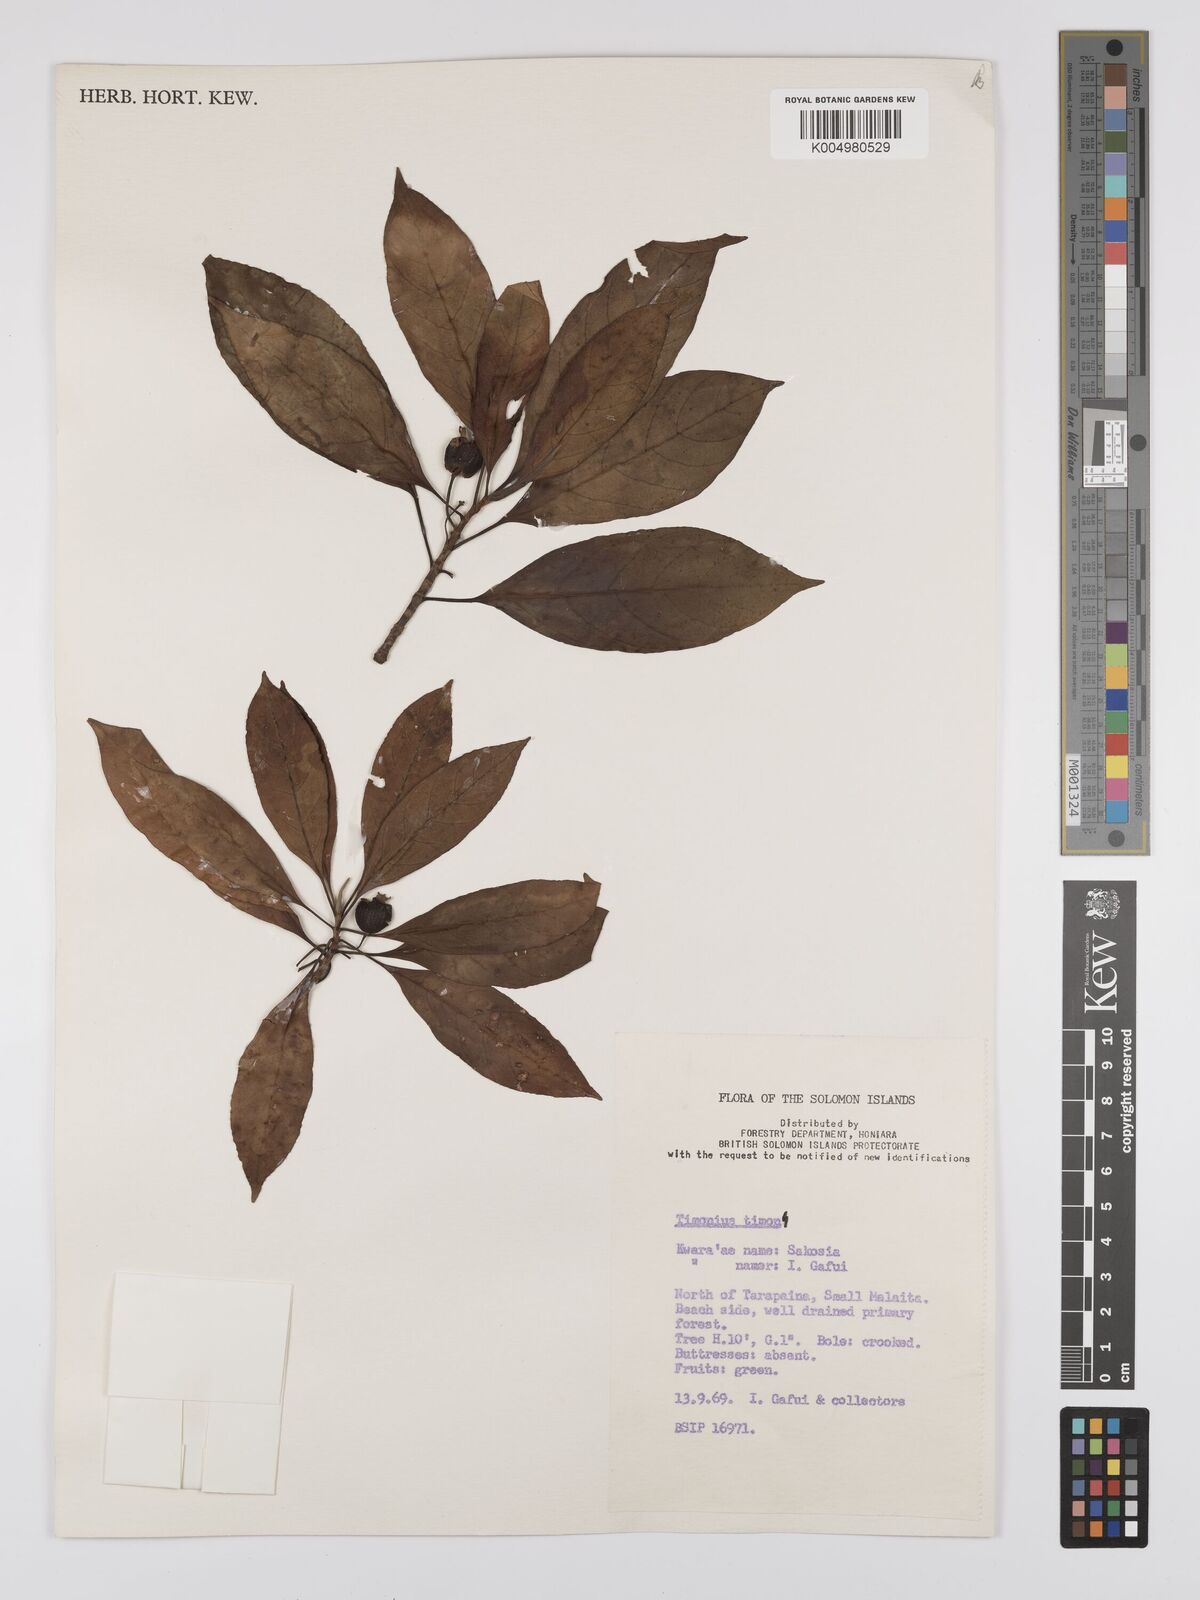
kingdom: Plantae
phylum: Tracheophyta
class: Magnoliopsida
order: Gentianales
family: Rubiaceae
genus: Timonius
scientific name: Timonius timon
